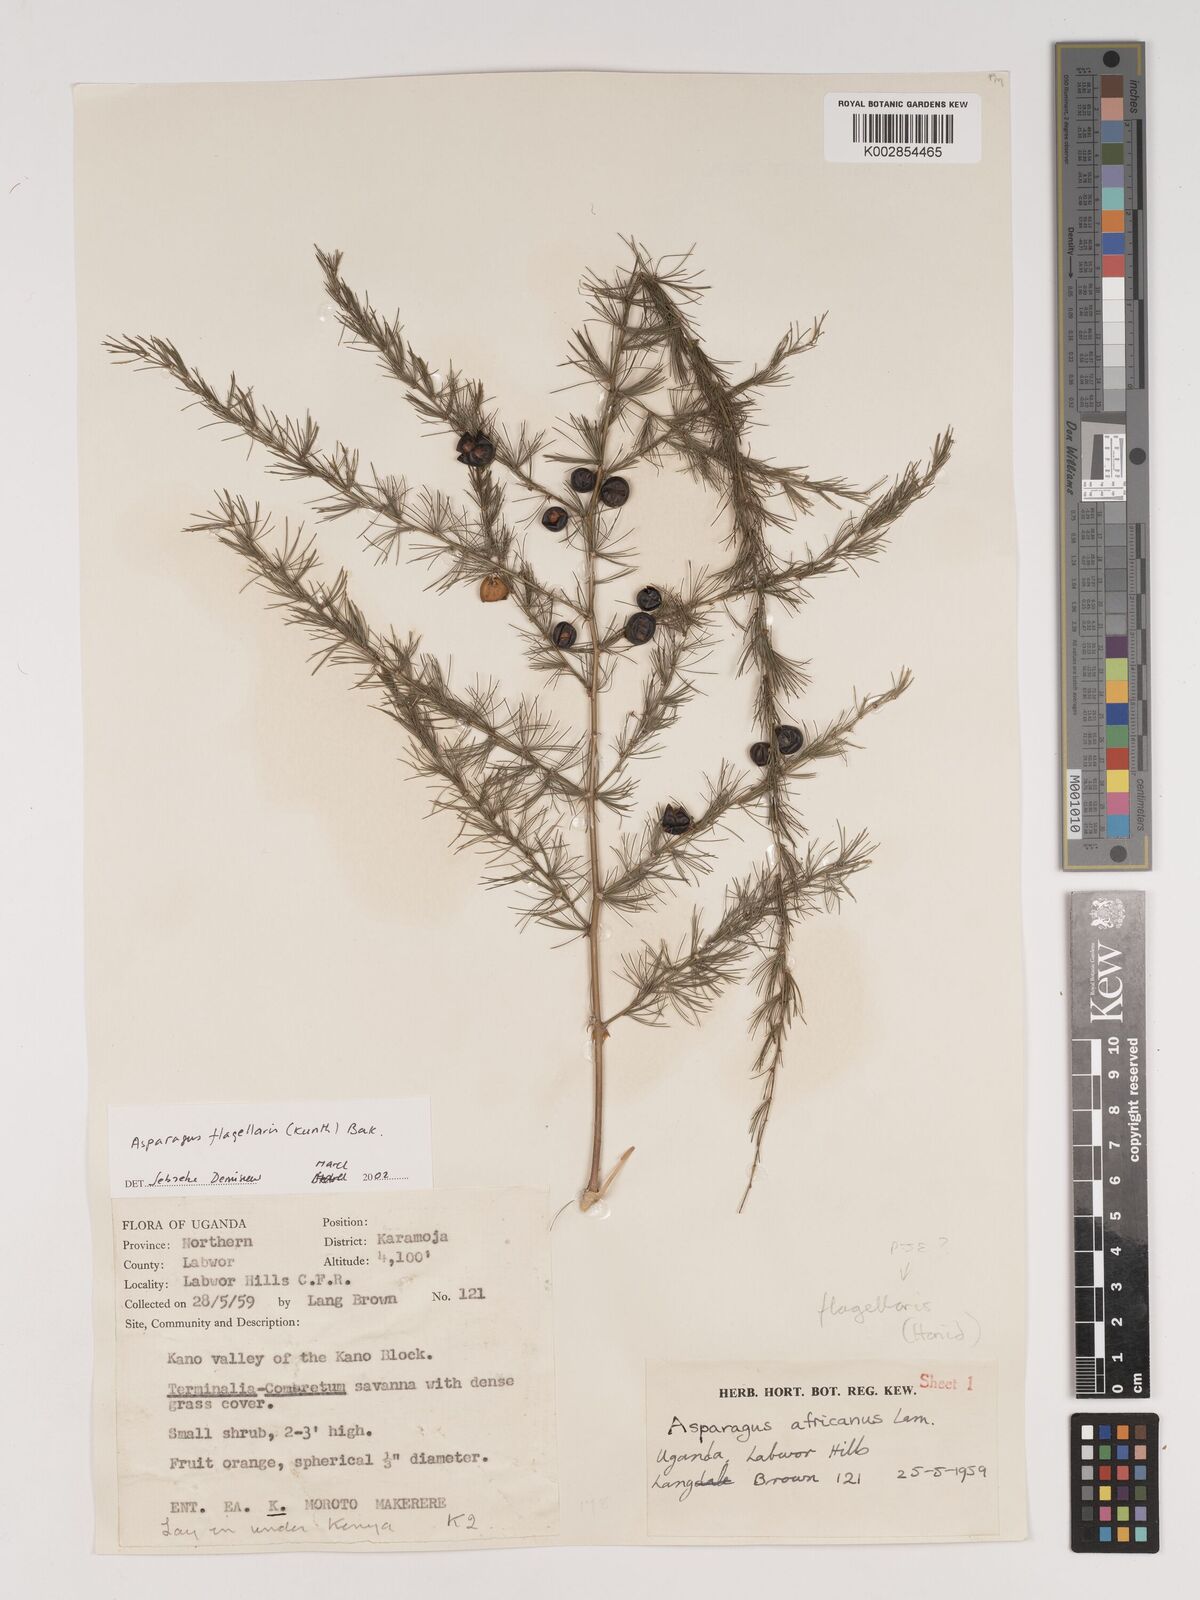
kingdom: Plantae
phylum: Tracheophyta
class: Liliopsida
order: Asparagales
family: Asparagaceae
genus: Asparagus
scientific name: Asparagus flagellaris
